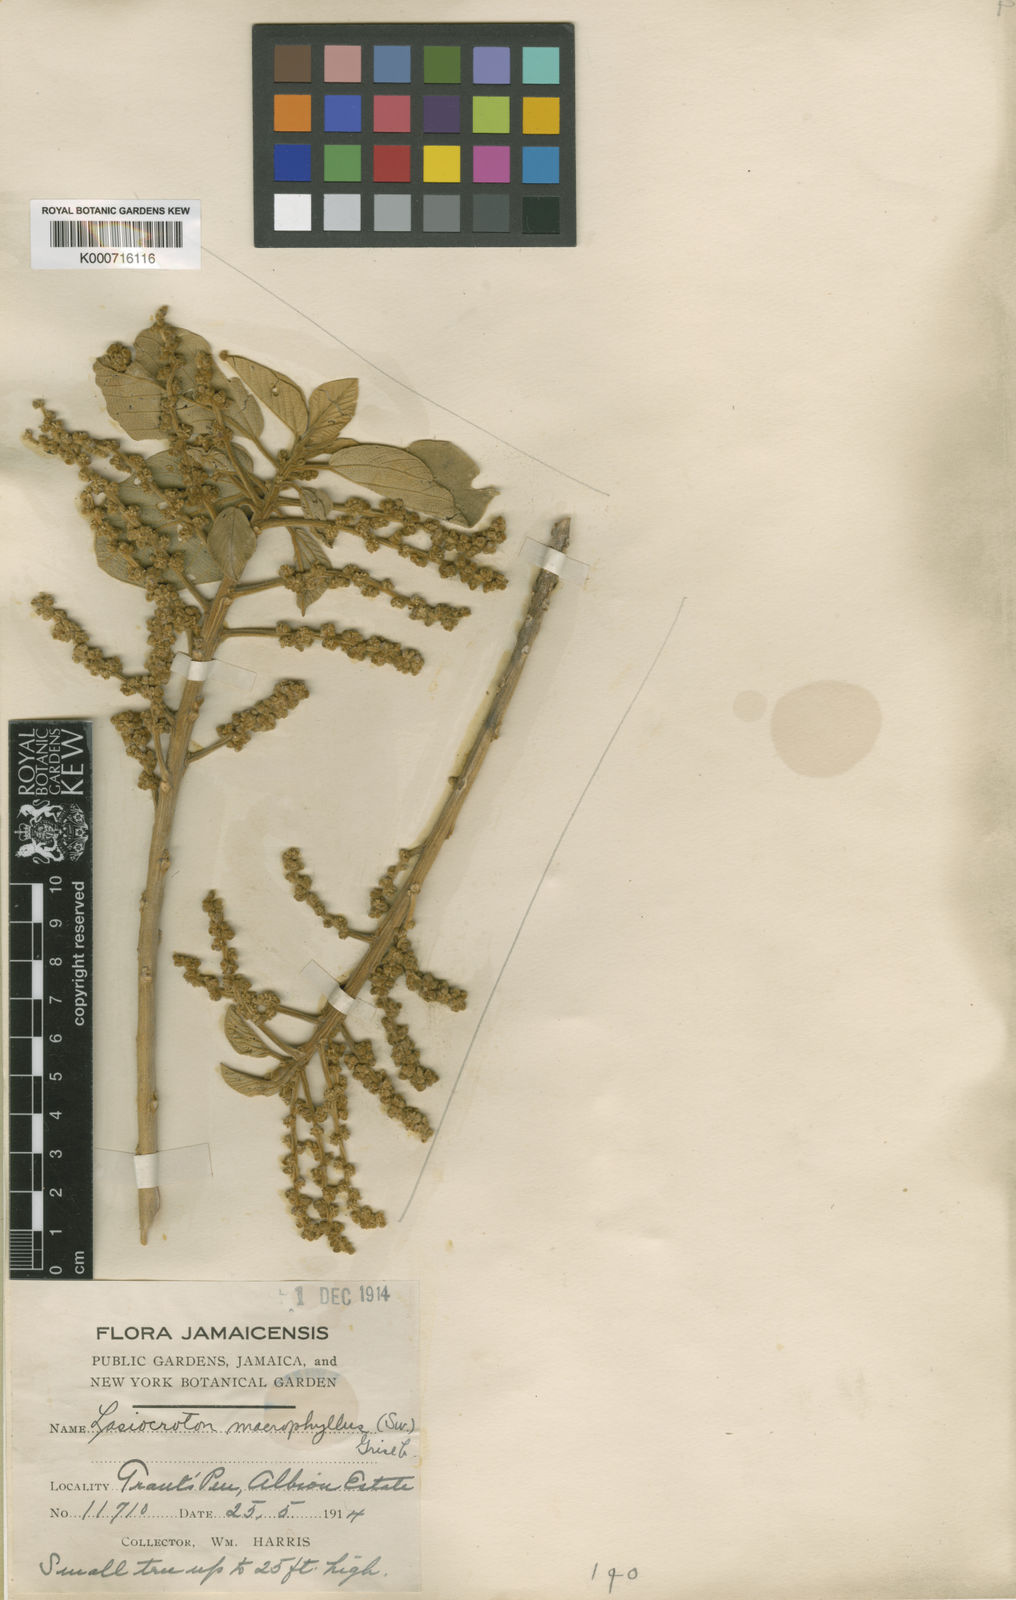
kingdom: Plantae
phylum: Tracheophyta
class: Magnoliopsida
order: Malpighiales
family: Euphorbiaceae
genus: Lasiocroton
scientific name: Lasiocroton macrophyllus
